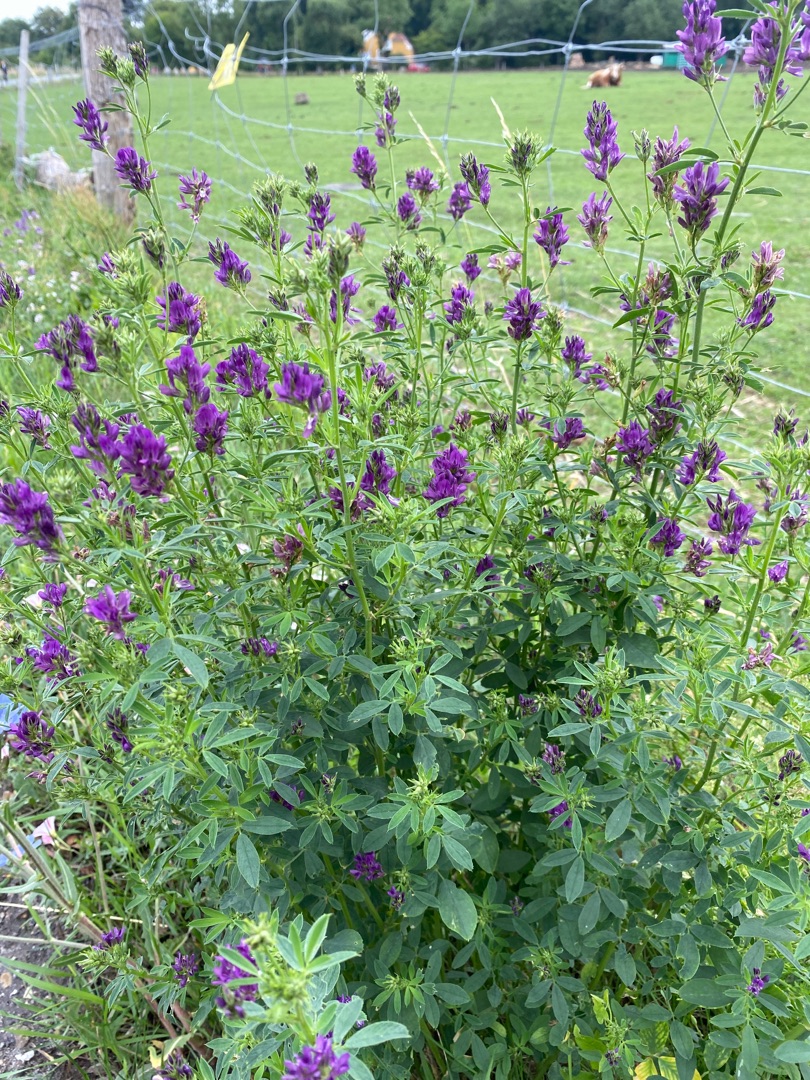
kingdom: Plantae
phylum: Tracheophyta
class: Magnoliopsida
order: Fabales
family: Fabaceae
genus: Medicago
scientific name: Medicago sativa
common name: Lucerne
